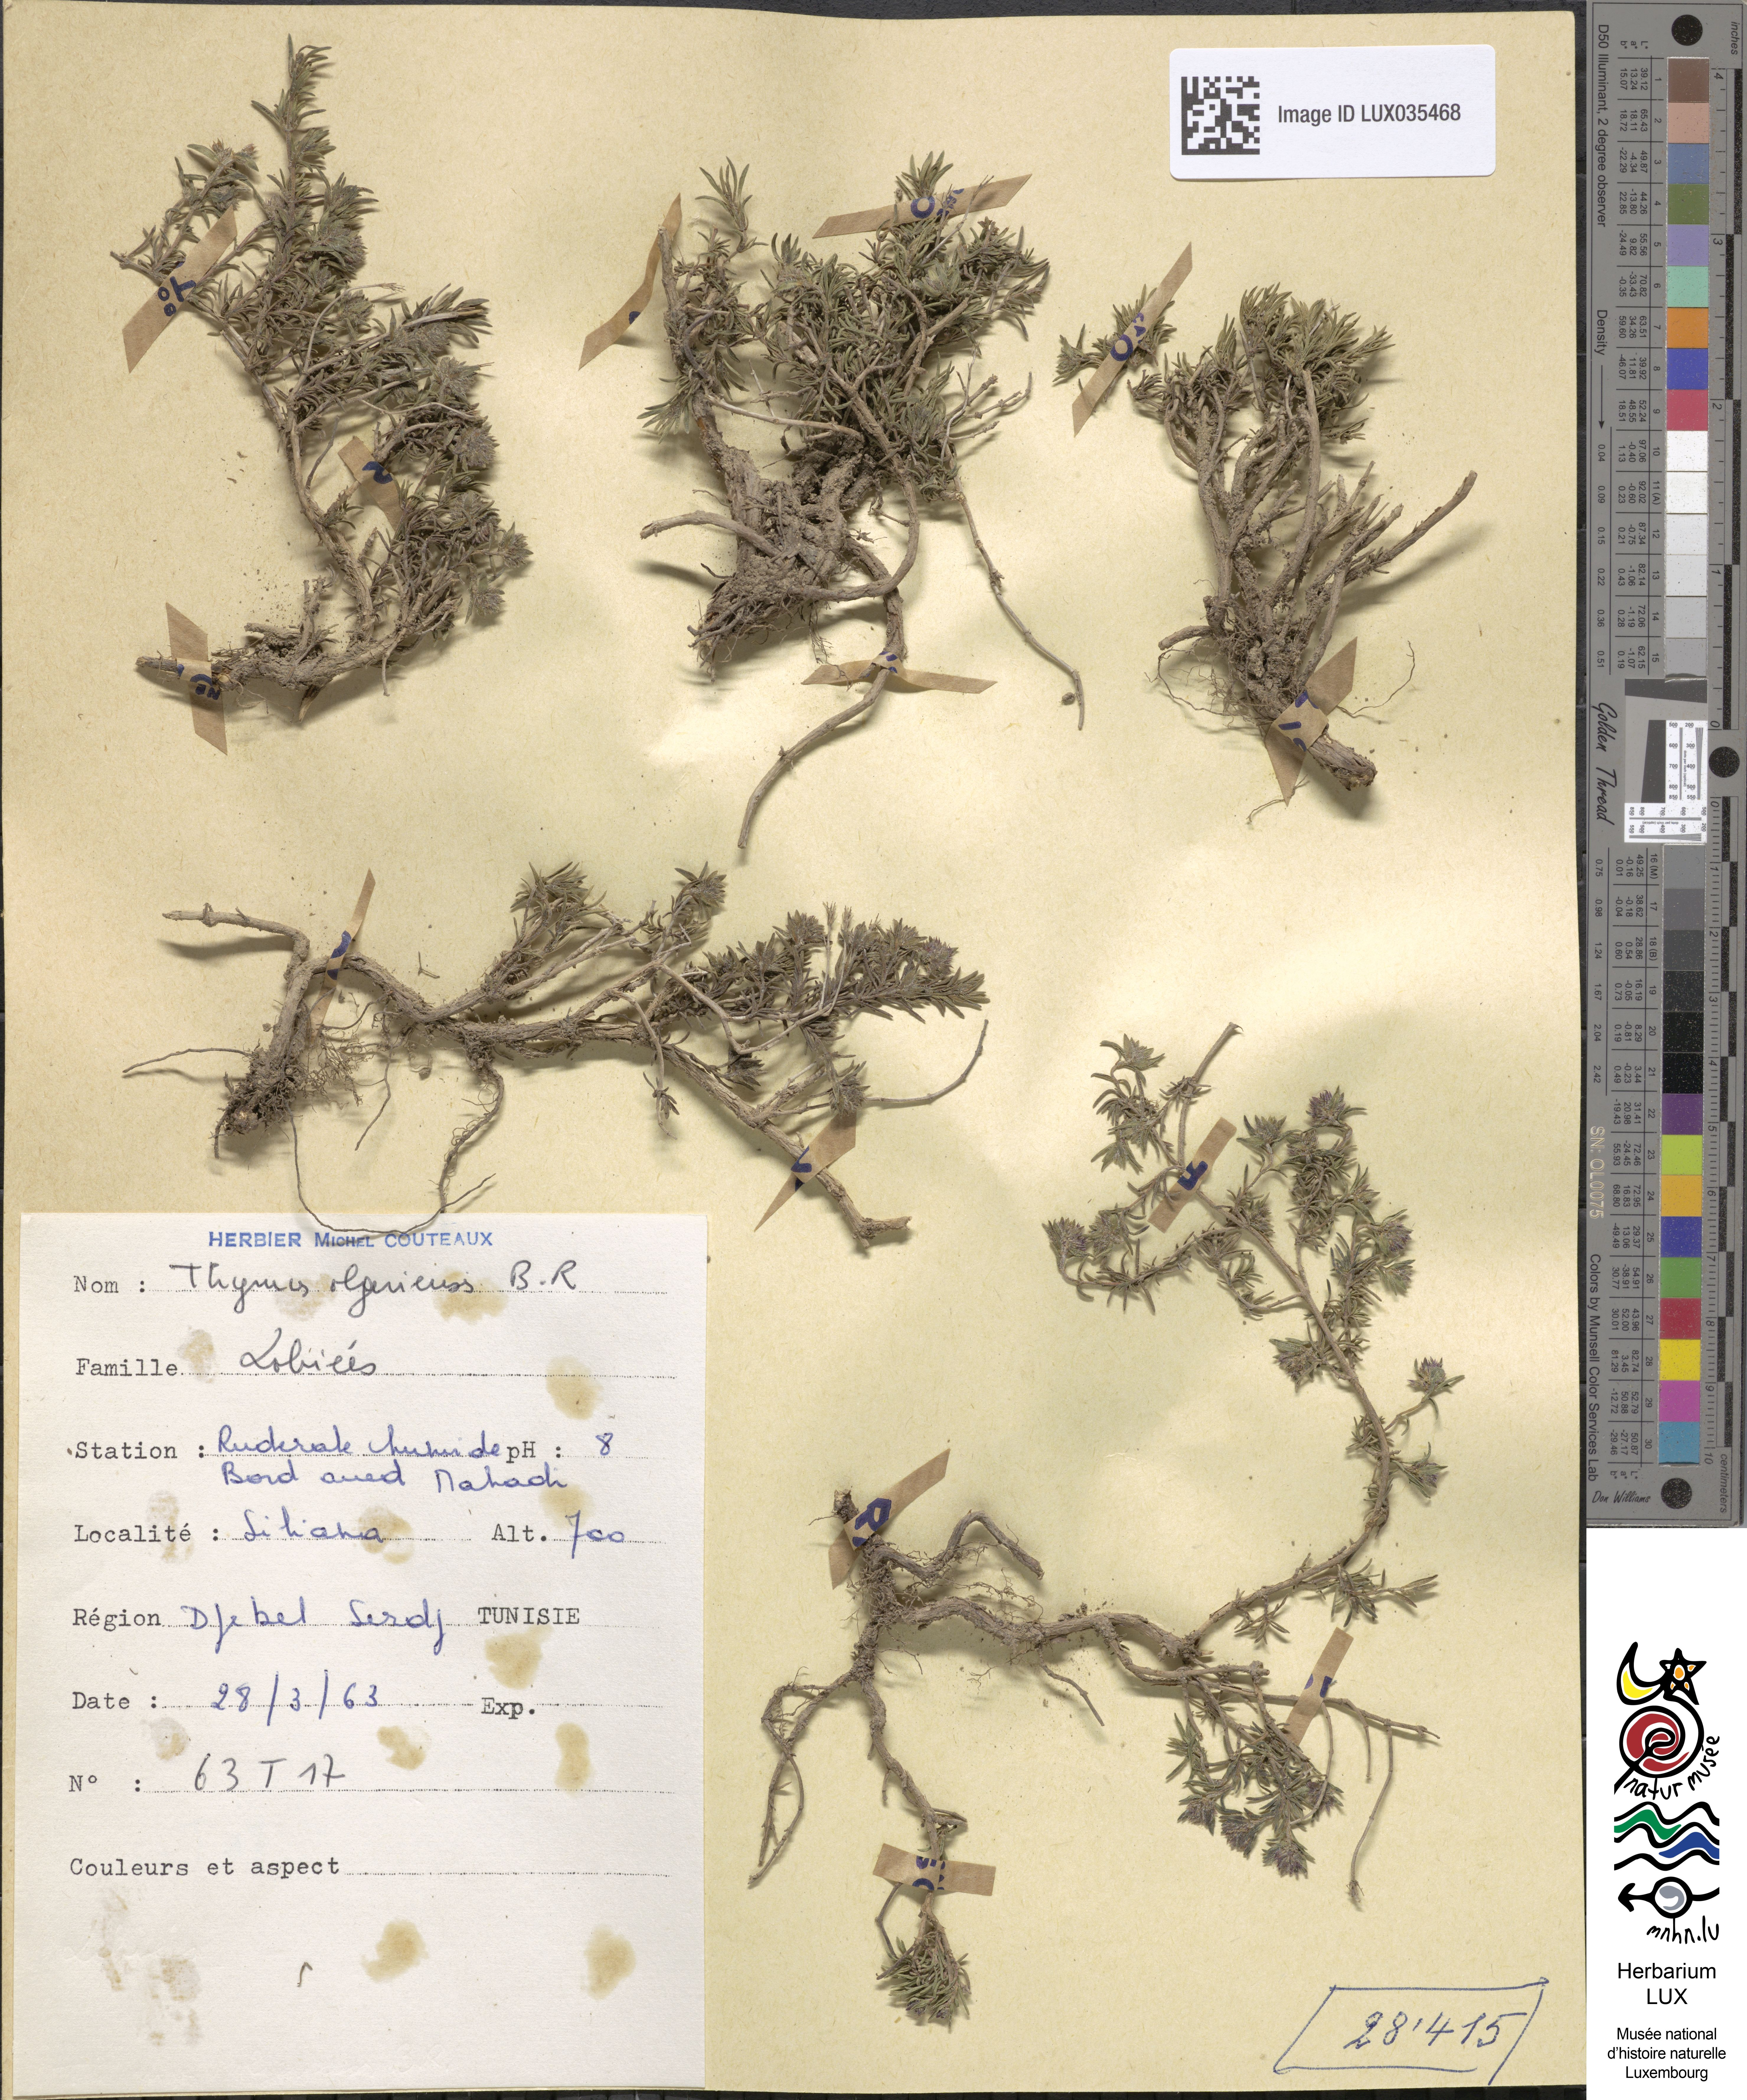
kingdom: Plantae
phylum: Tracheophyta
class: Magnoliopsida
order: Lamiales
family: Lamiaceae
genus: Thymus
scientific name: Thymus algeriensis
